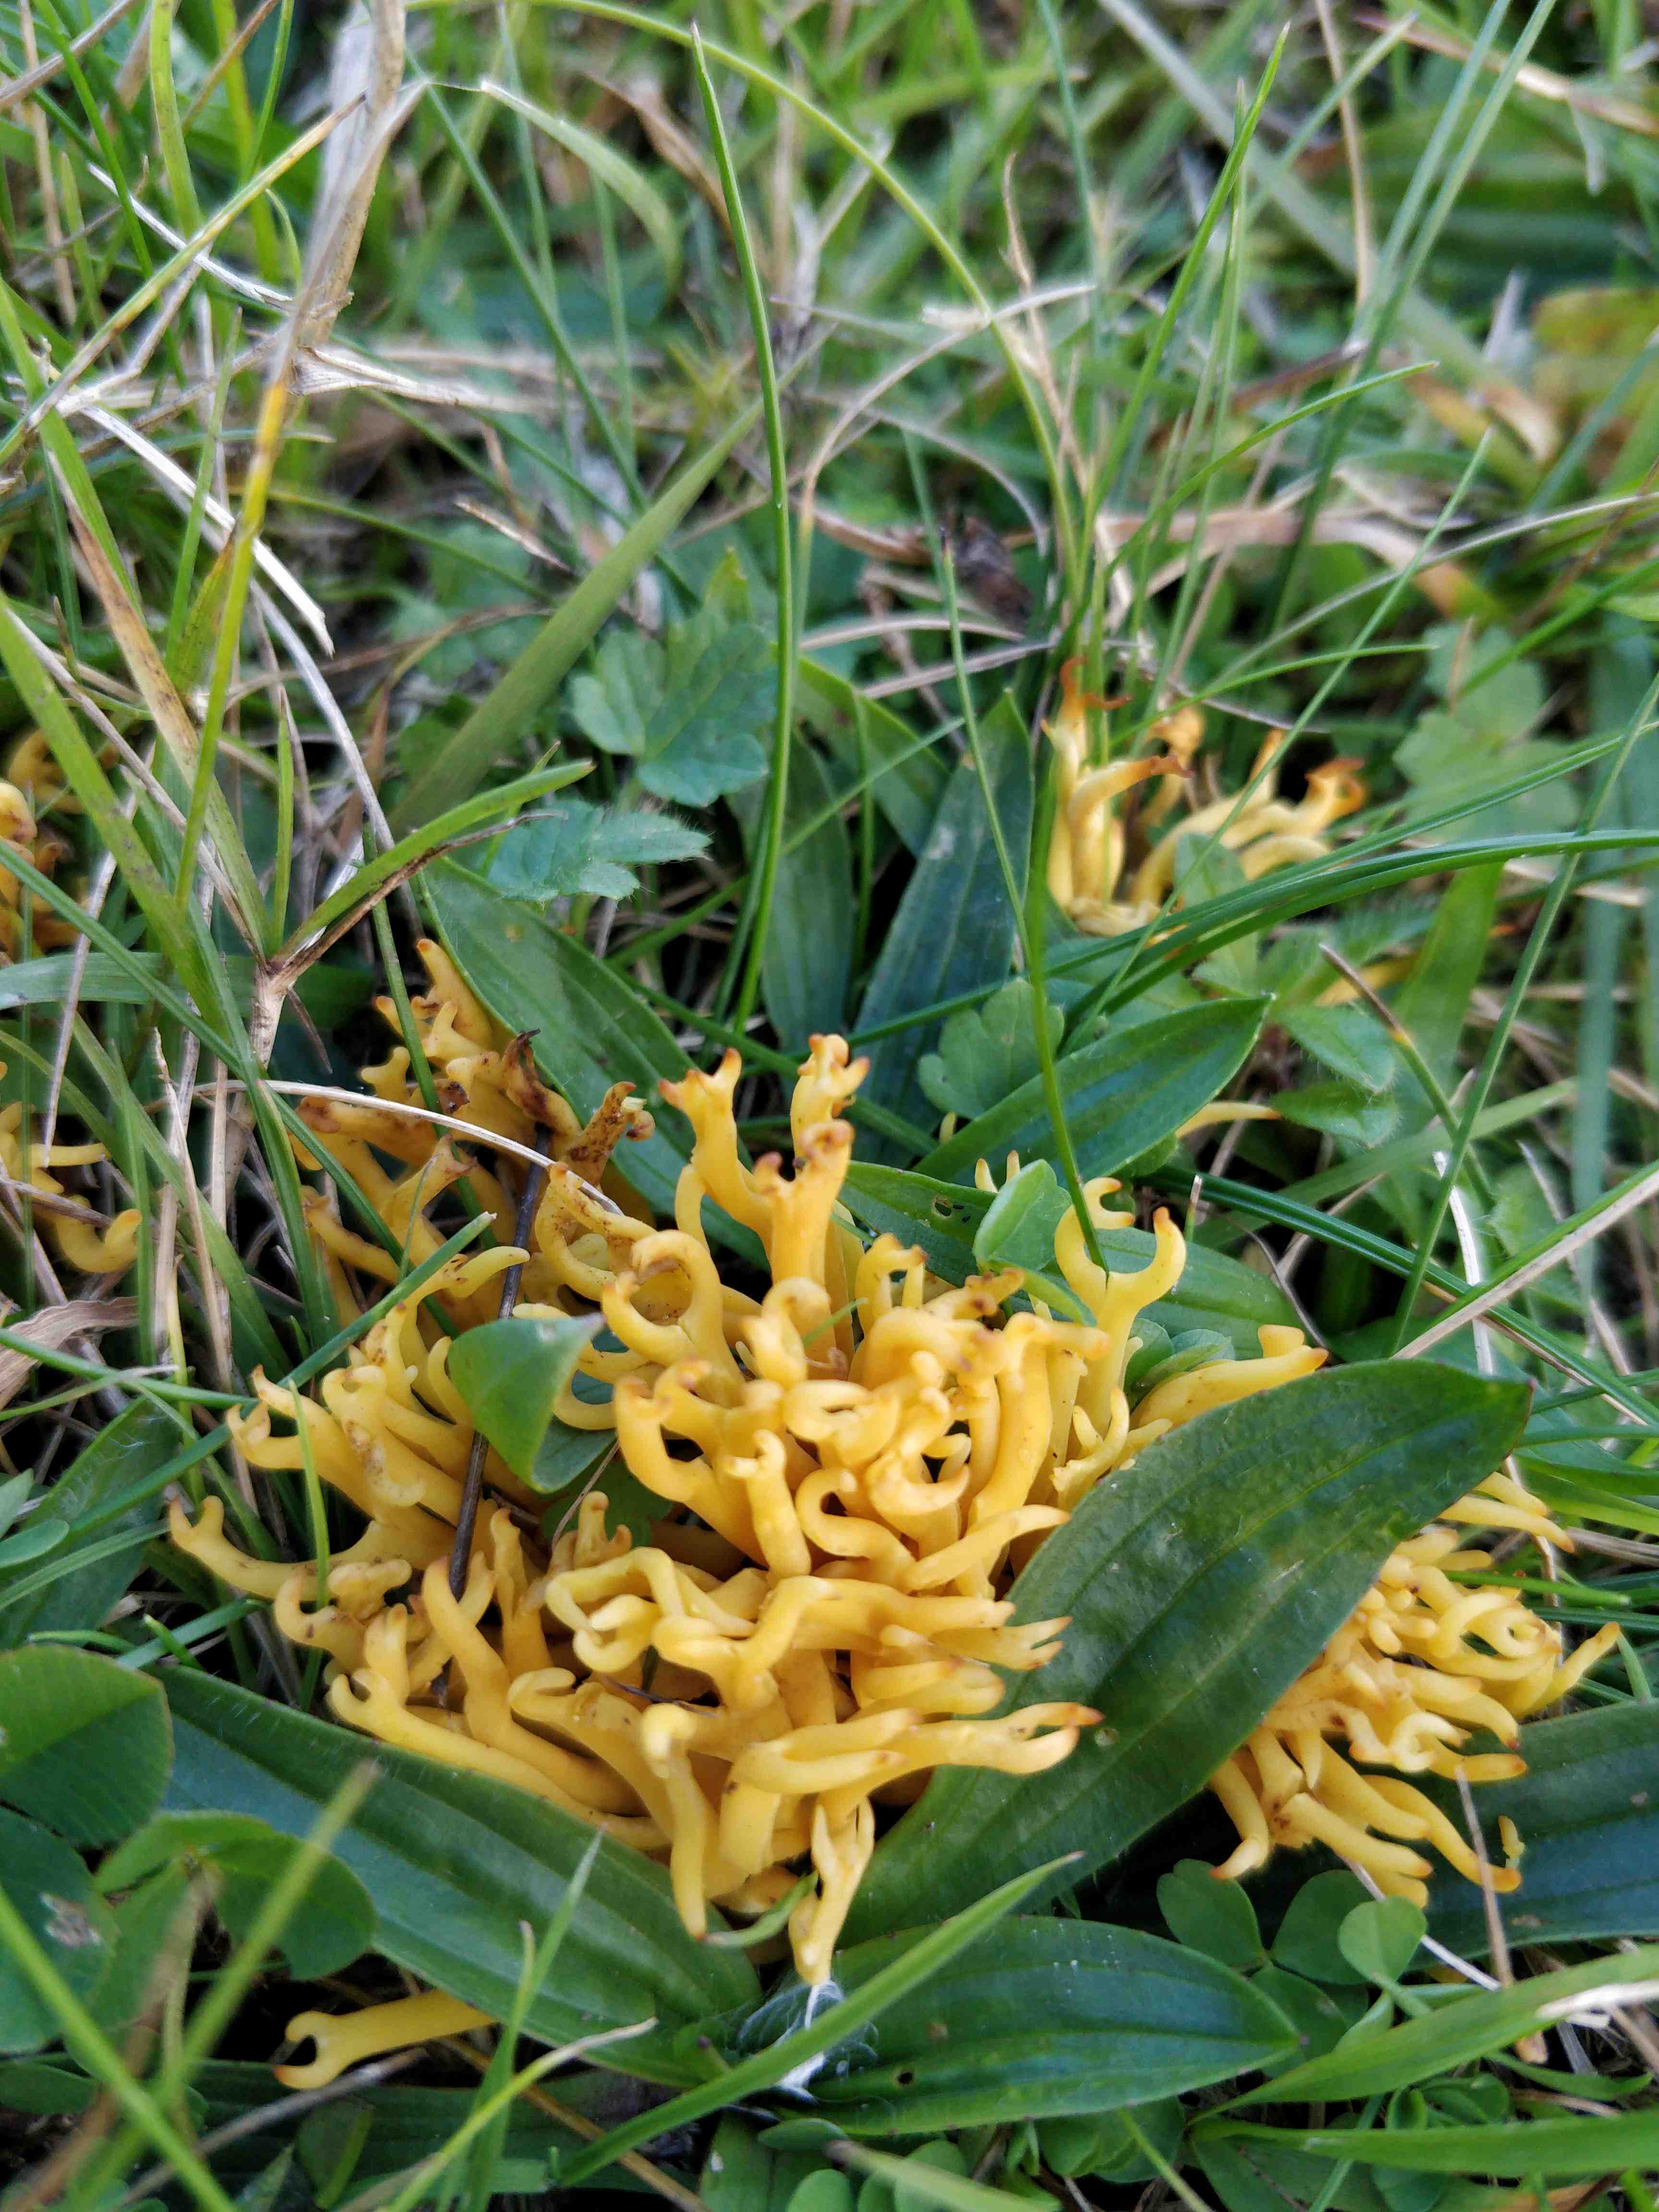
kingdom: Fungi
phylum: Basidiomycota
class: Agaricomycetes
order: Agaricales
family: Clavariaceae
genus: Clavulinopsis
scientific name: Clavulinopsis corniculata
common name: eng-køllesvamp
